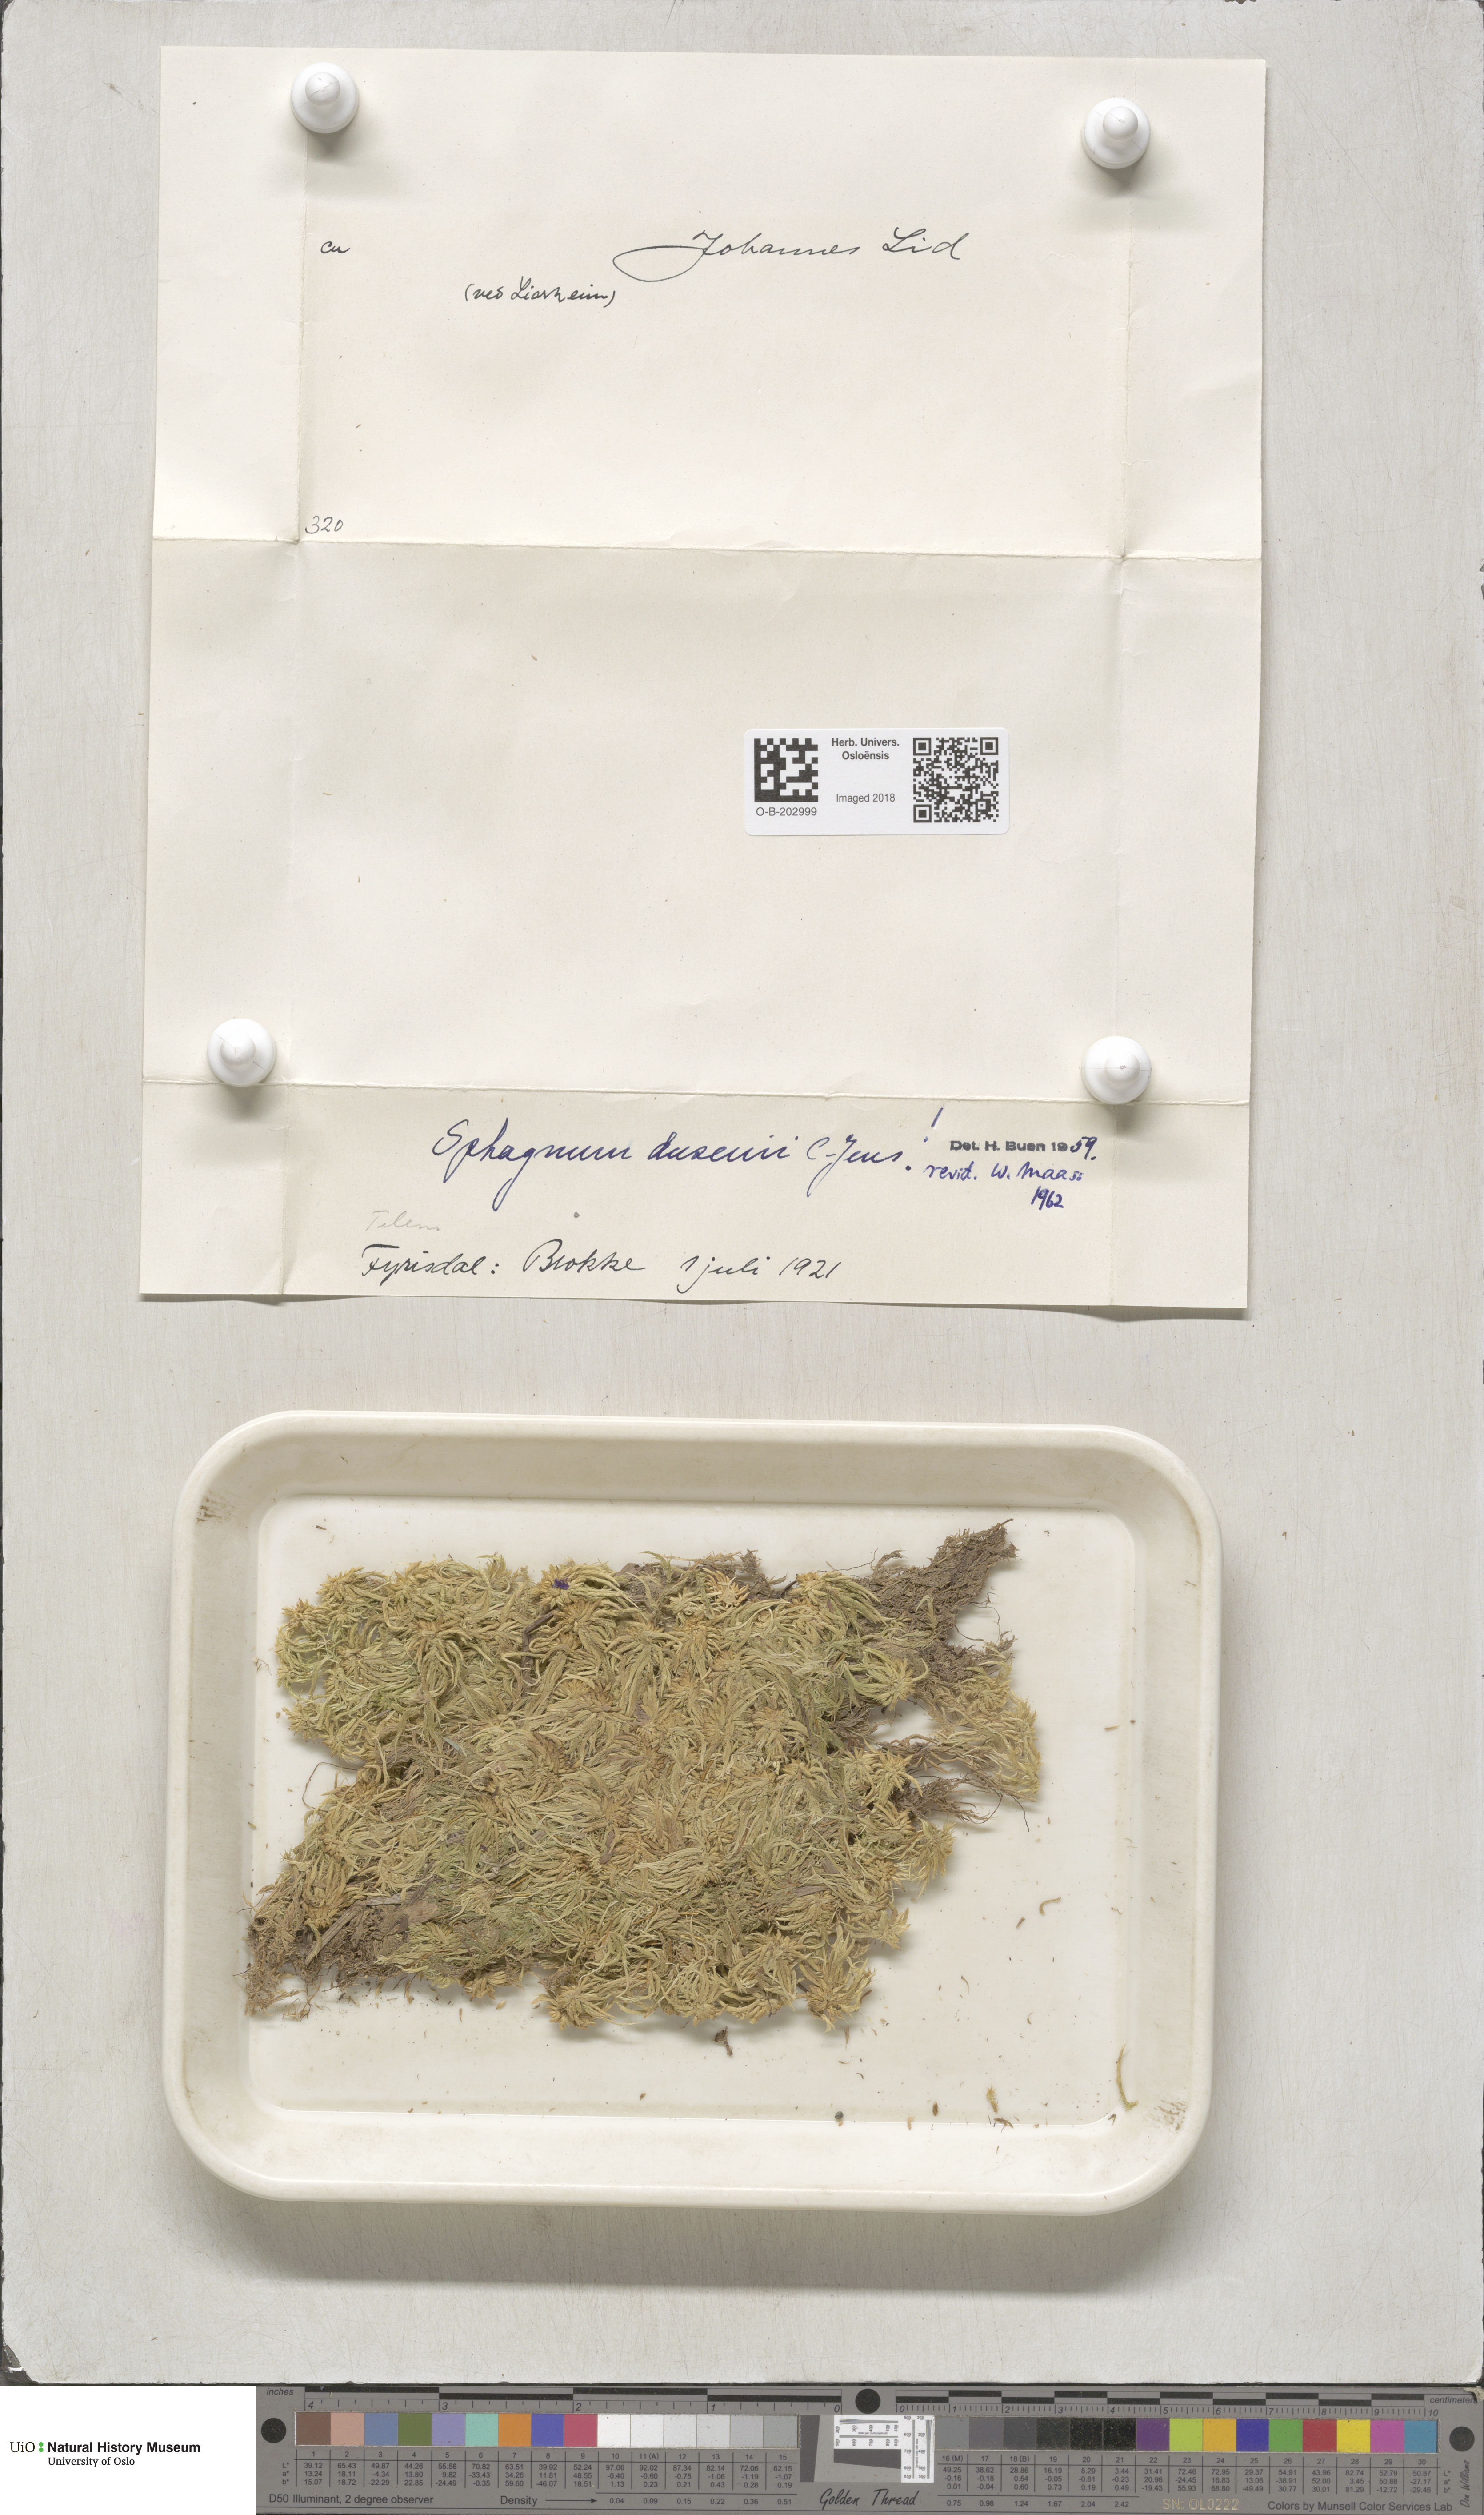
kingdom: Plantae
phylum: Bryophyta
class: Sphagnopsida
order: Sphagnales
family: Sphagnaceae
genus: Sphagnum
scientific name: Sphagnum majus
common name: Olive bog-moss
